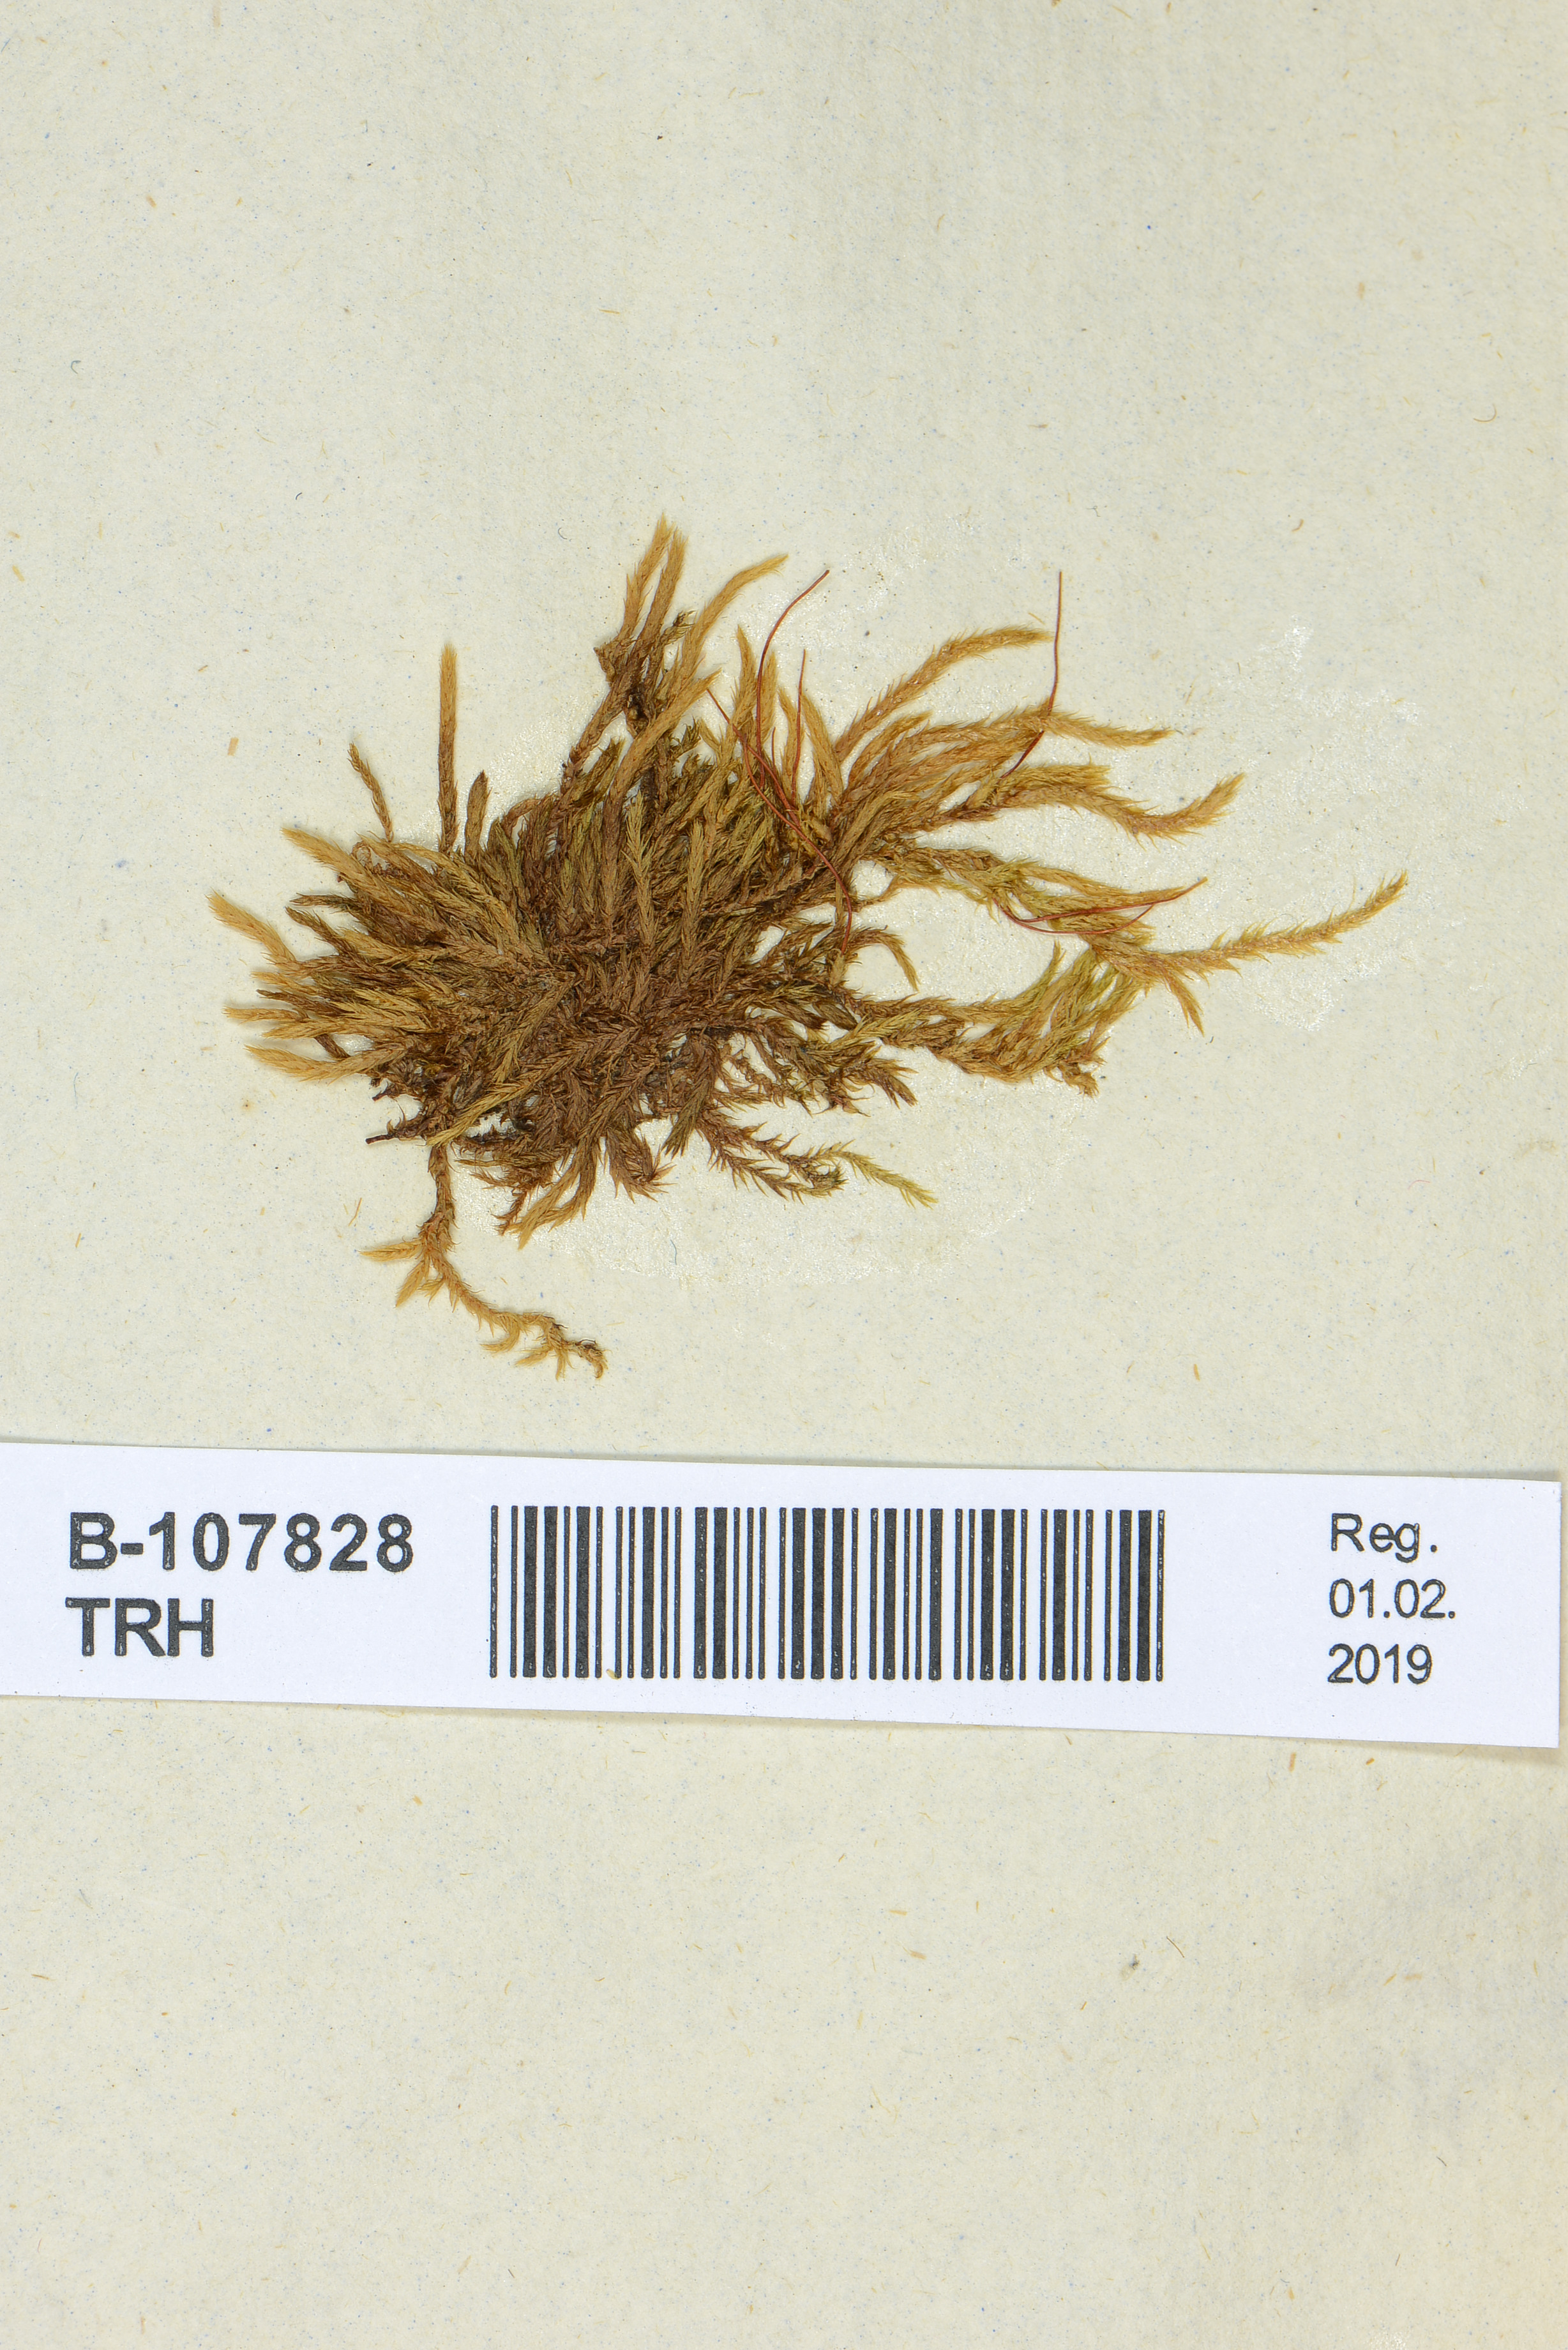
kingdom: Plantae
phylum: Bryophyta
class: Bryopsida
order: Hypnales
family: Pylaisiaceae
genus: Pylaisia
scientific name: Pylaisia polyantha
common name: Many-flowered leskea
